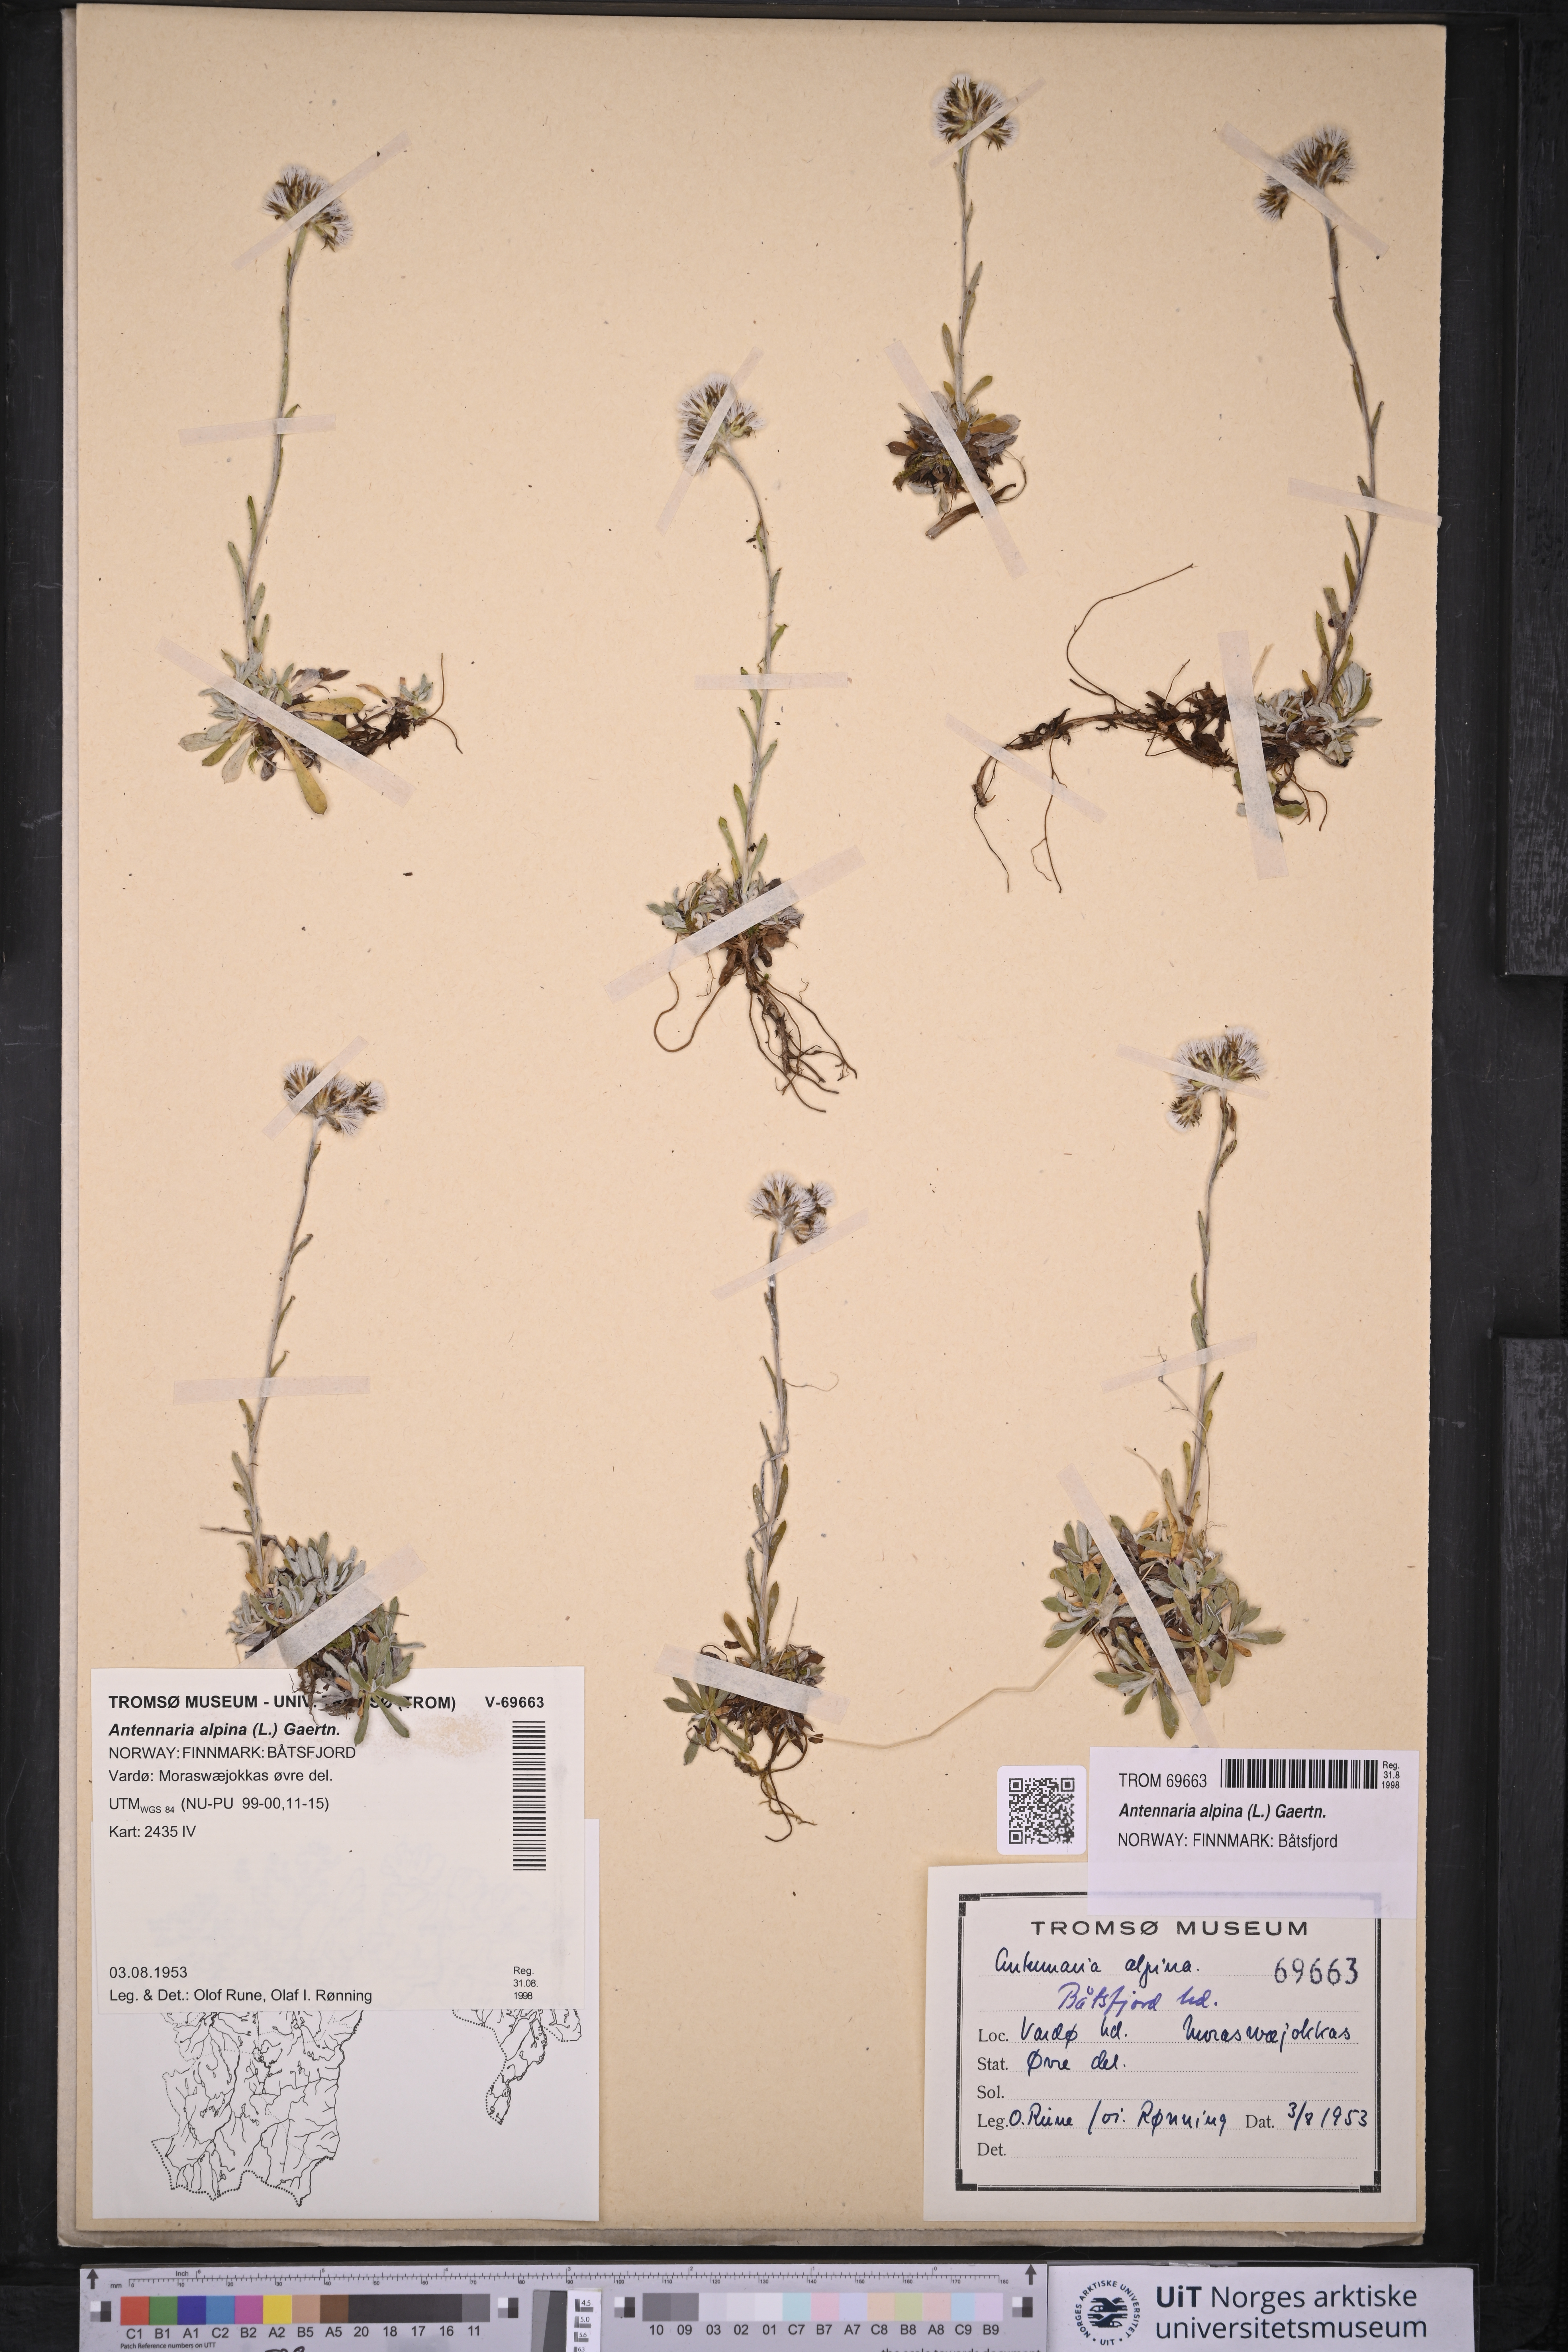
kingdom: Plantae
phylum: Tracheophyta
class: Magnoliopsida
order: Asterales
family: Asteraceae
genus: Antennaria
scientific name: Antennaria alpina
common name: Alpine pussytoes
